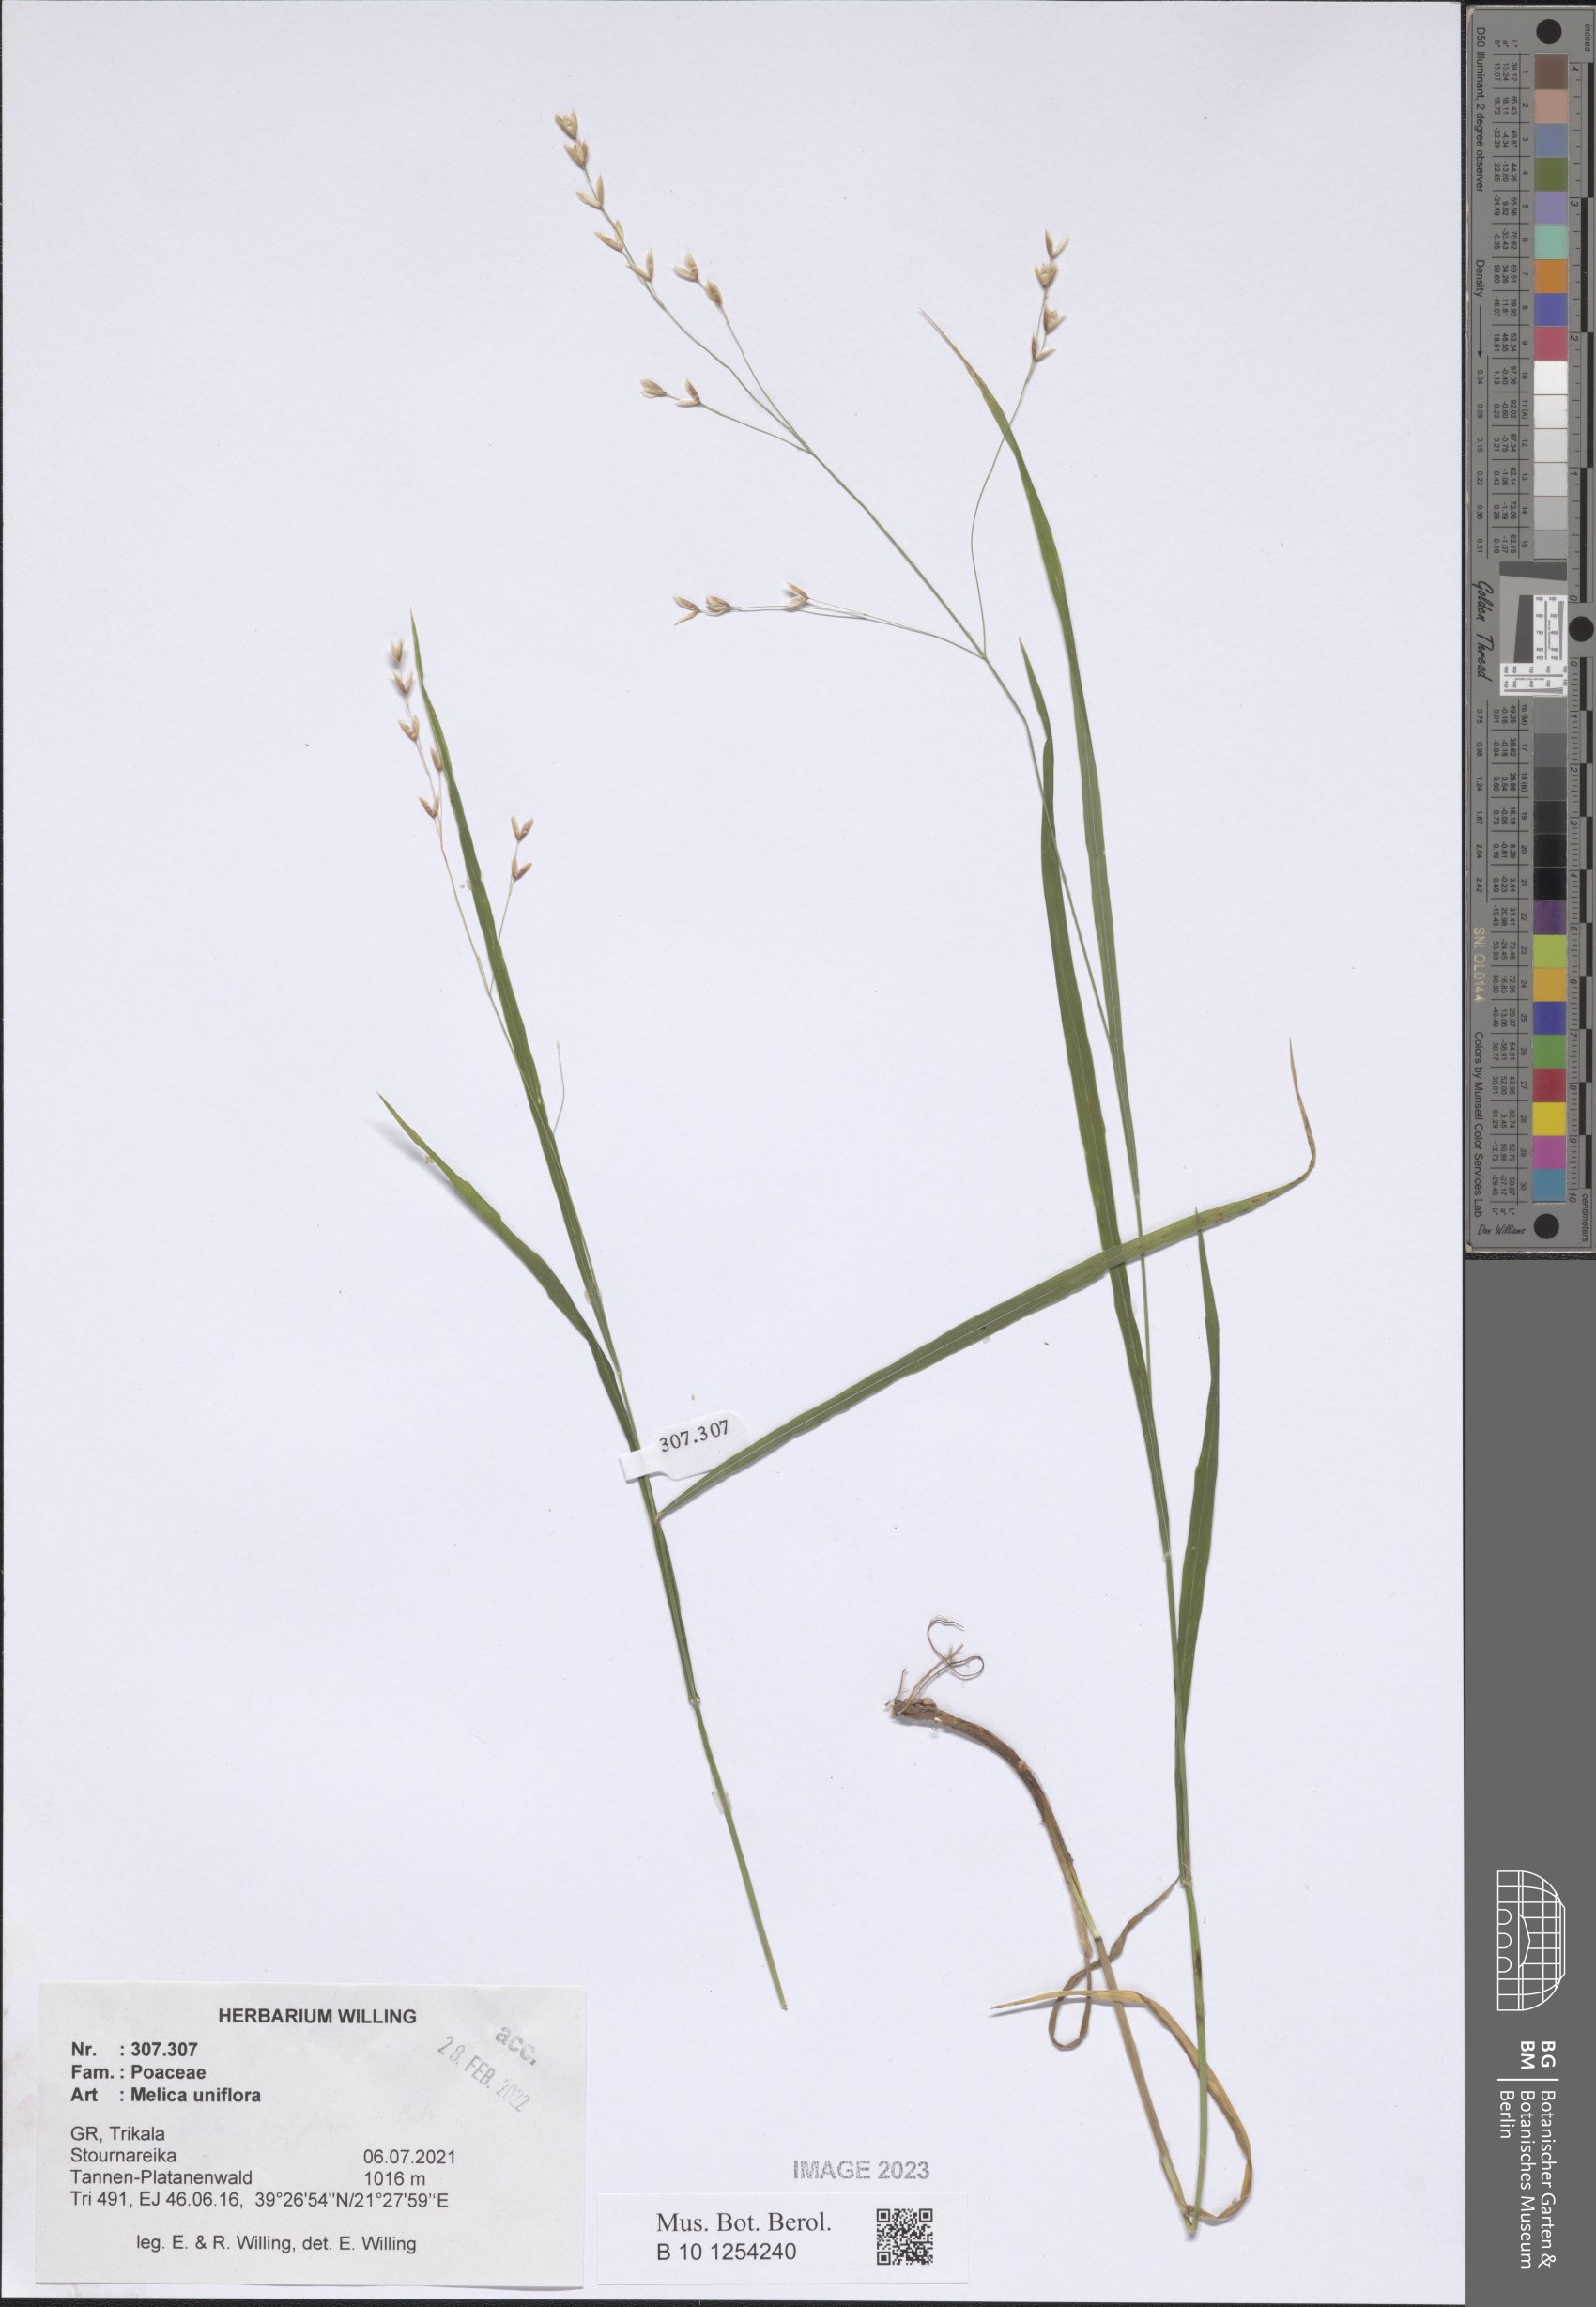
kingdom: Plantae
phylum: Tracheophyta
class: Liliopsida
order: Poales
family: Poaceae
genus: Melica
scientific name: Melica uniflora
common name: Wood melick
